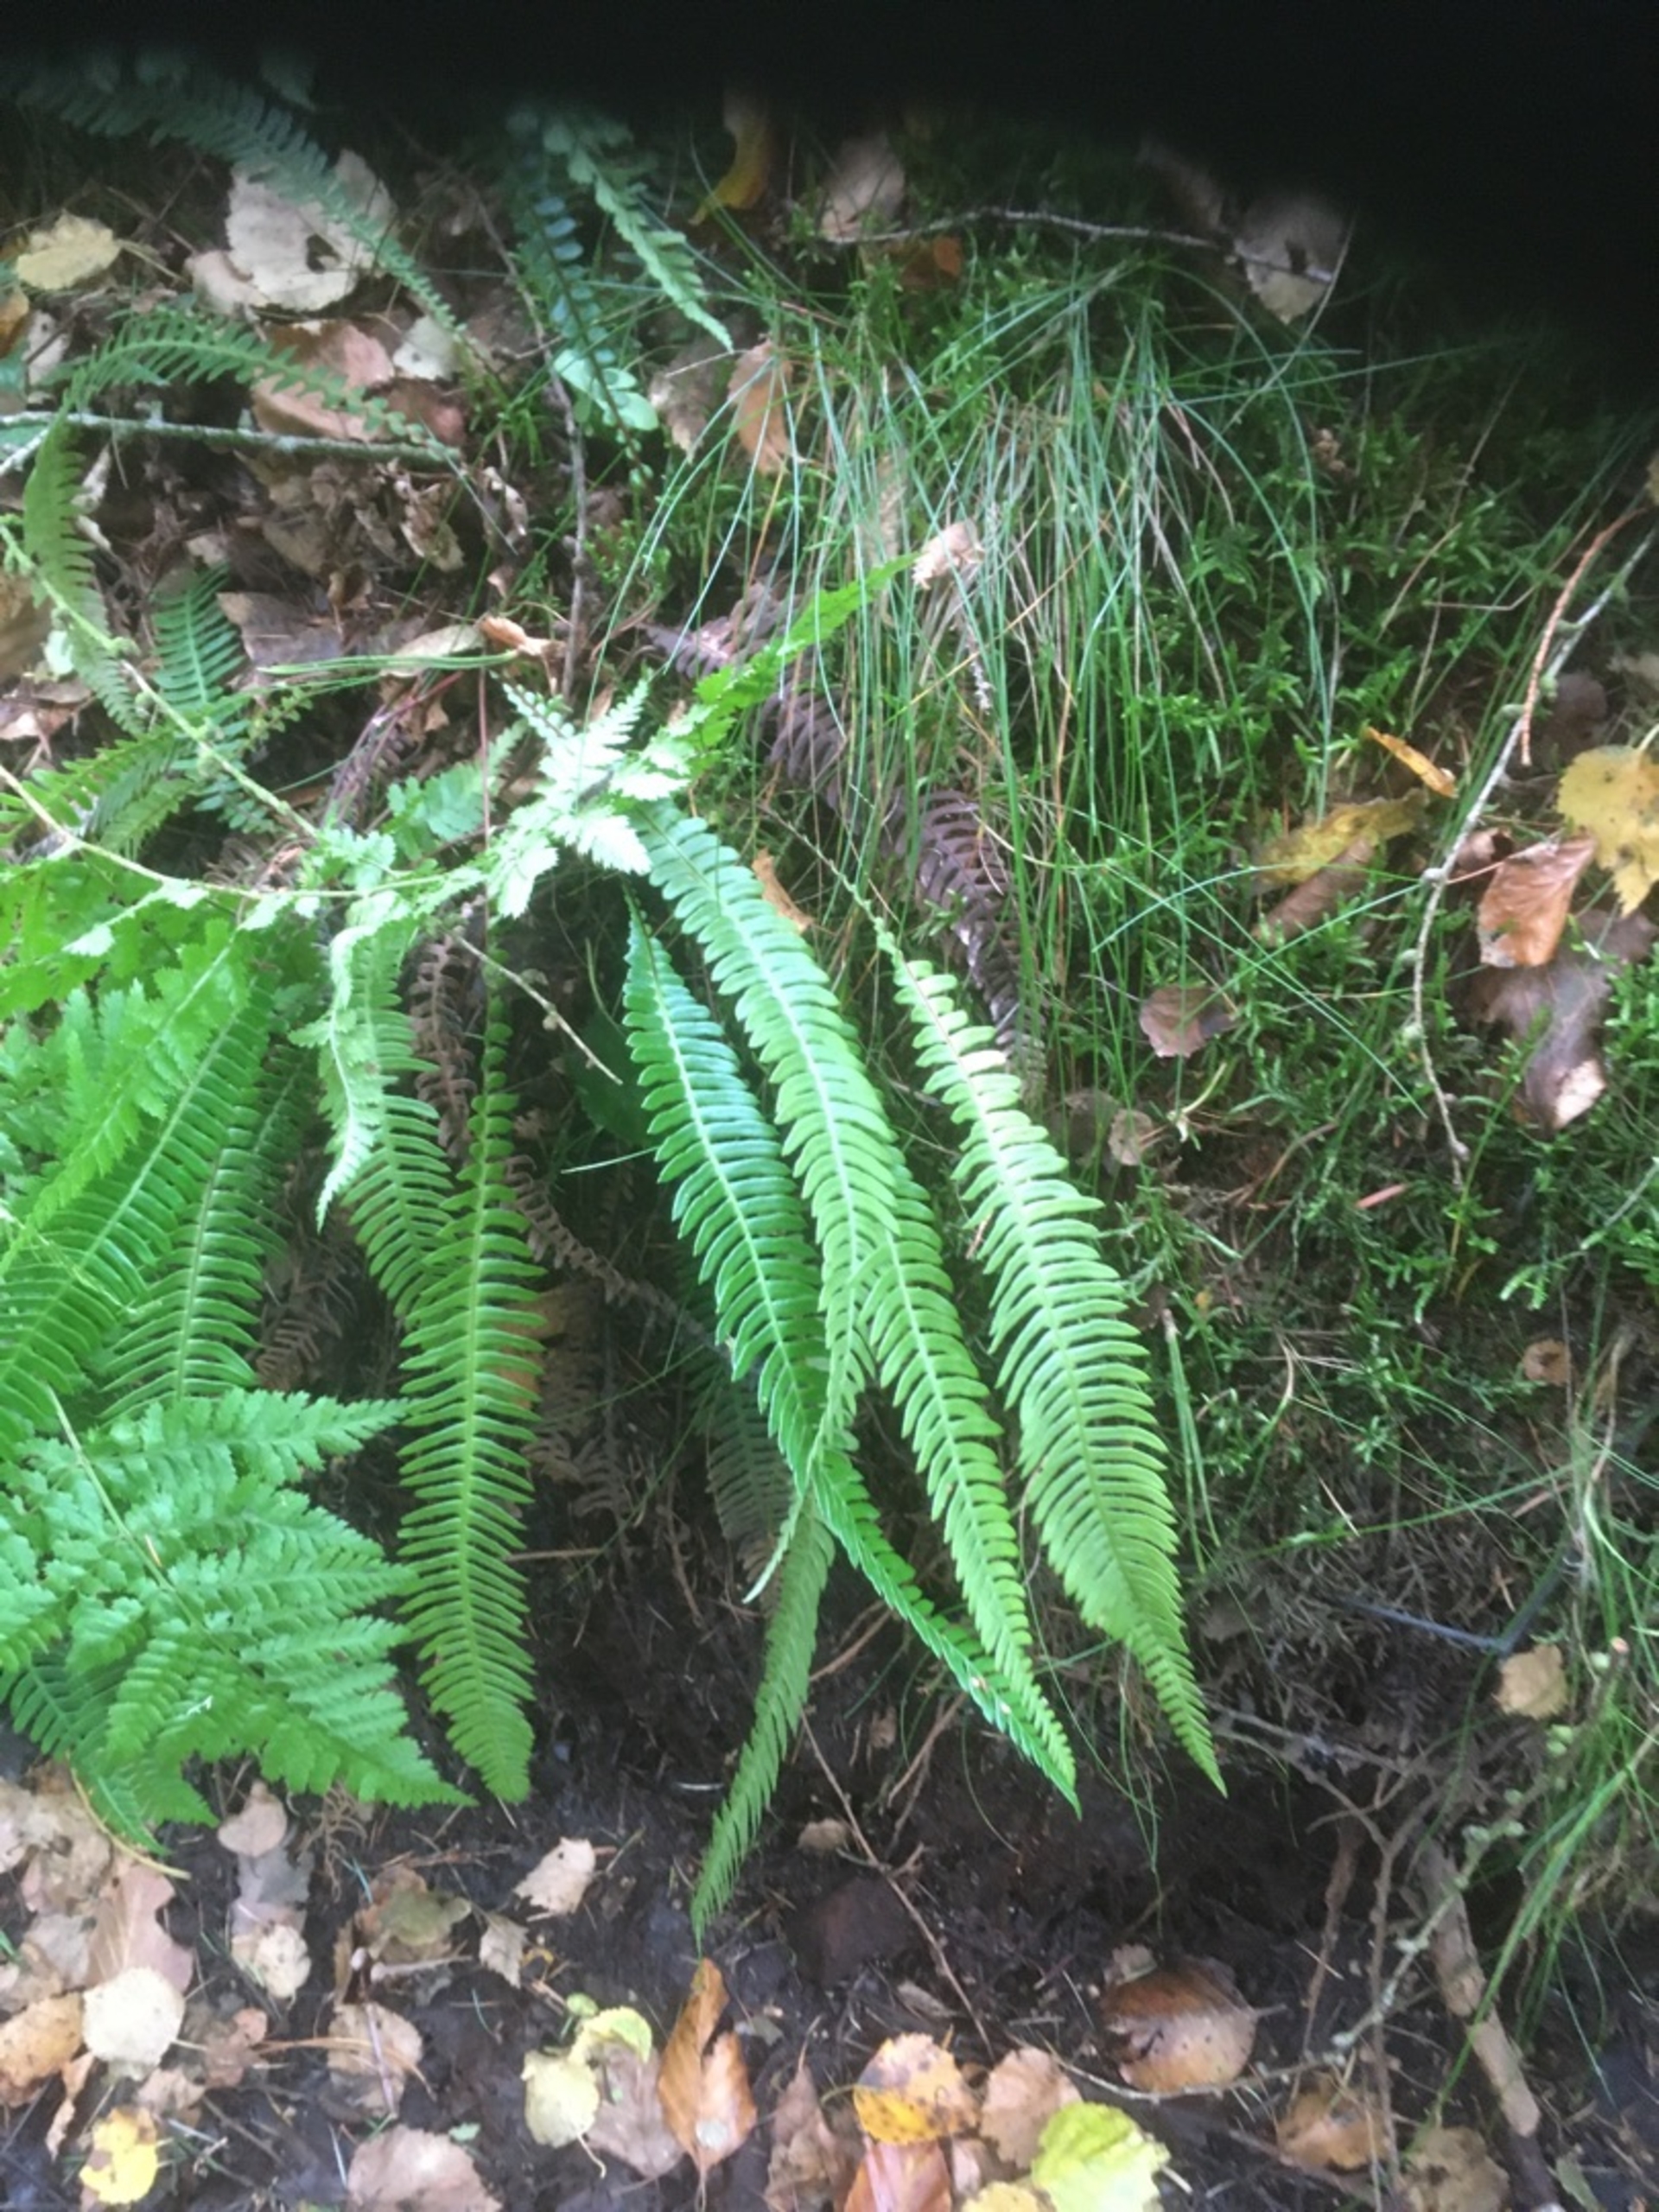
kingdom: Plantae
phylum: Tracheophyta
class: Polypodiopsida
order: Polypodiales
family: Blechnaceae
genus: Struthiopteris
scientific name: Struthiopteris spicant
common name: Kambregne
